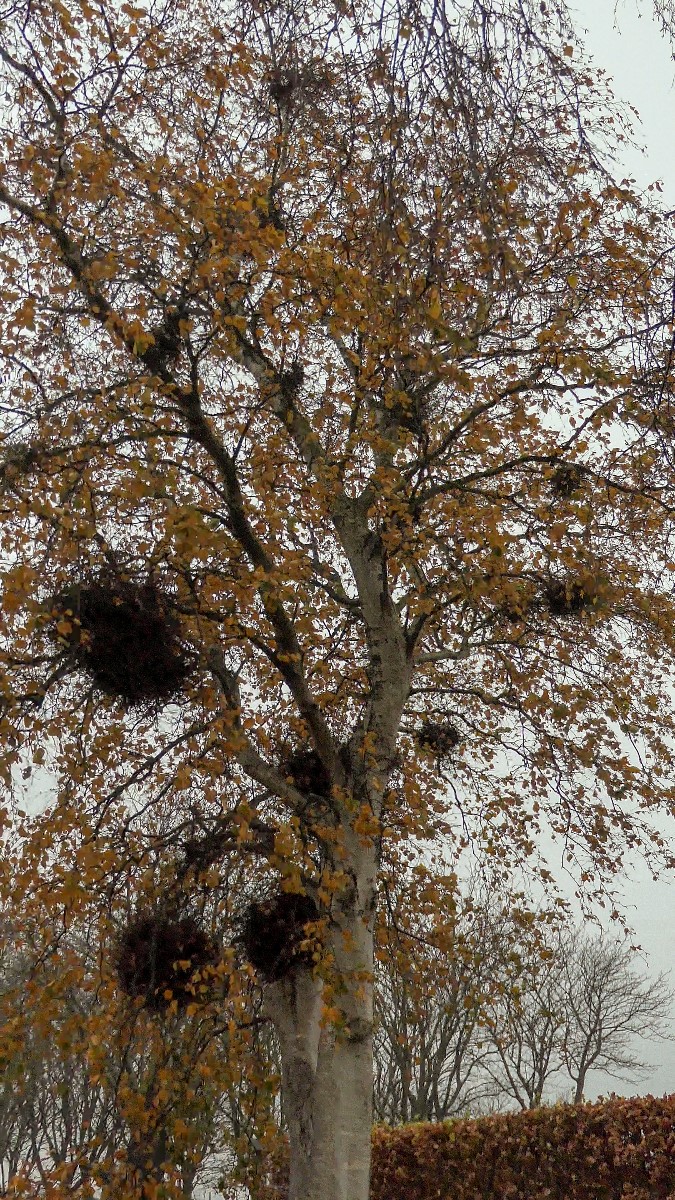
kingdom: Fungi
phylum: Ascomycota
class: Taphrinomycetes
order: Taphrinales
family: Taphrinaceae
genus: Taphrina
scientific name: Taphrina betulina
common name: hekse-sækdug
